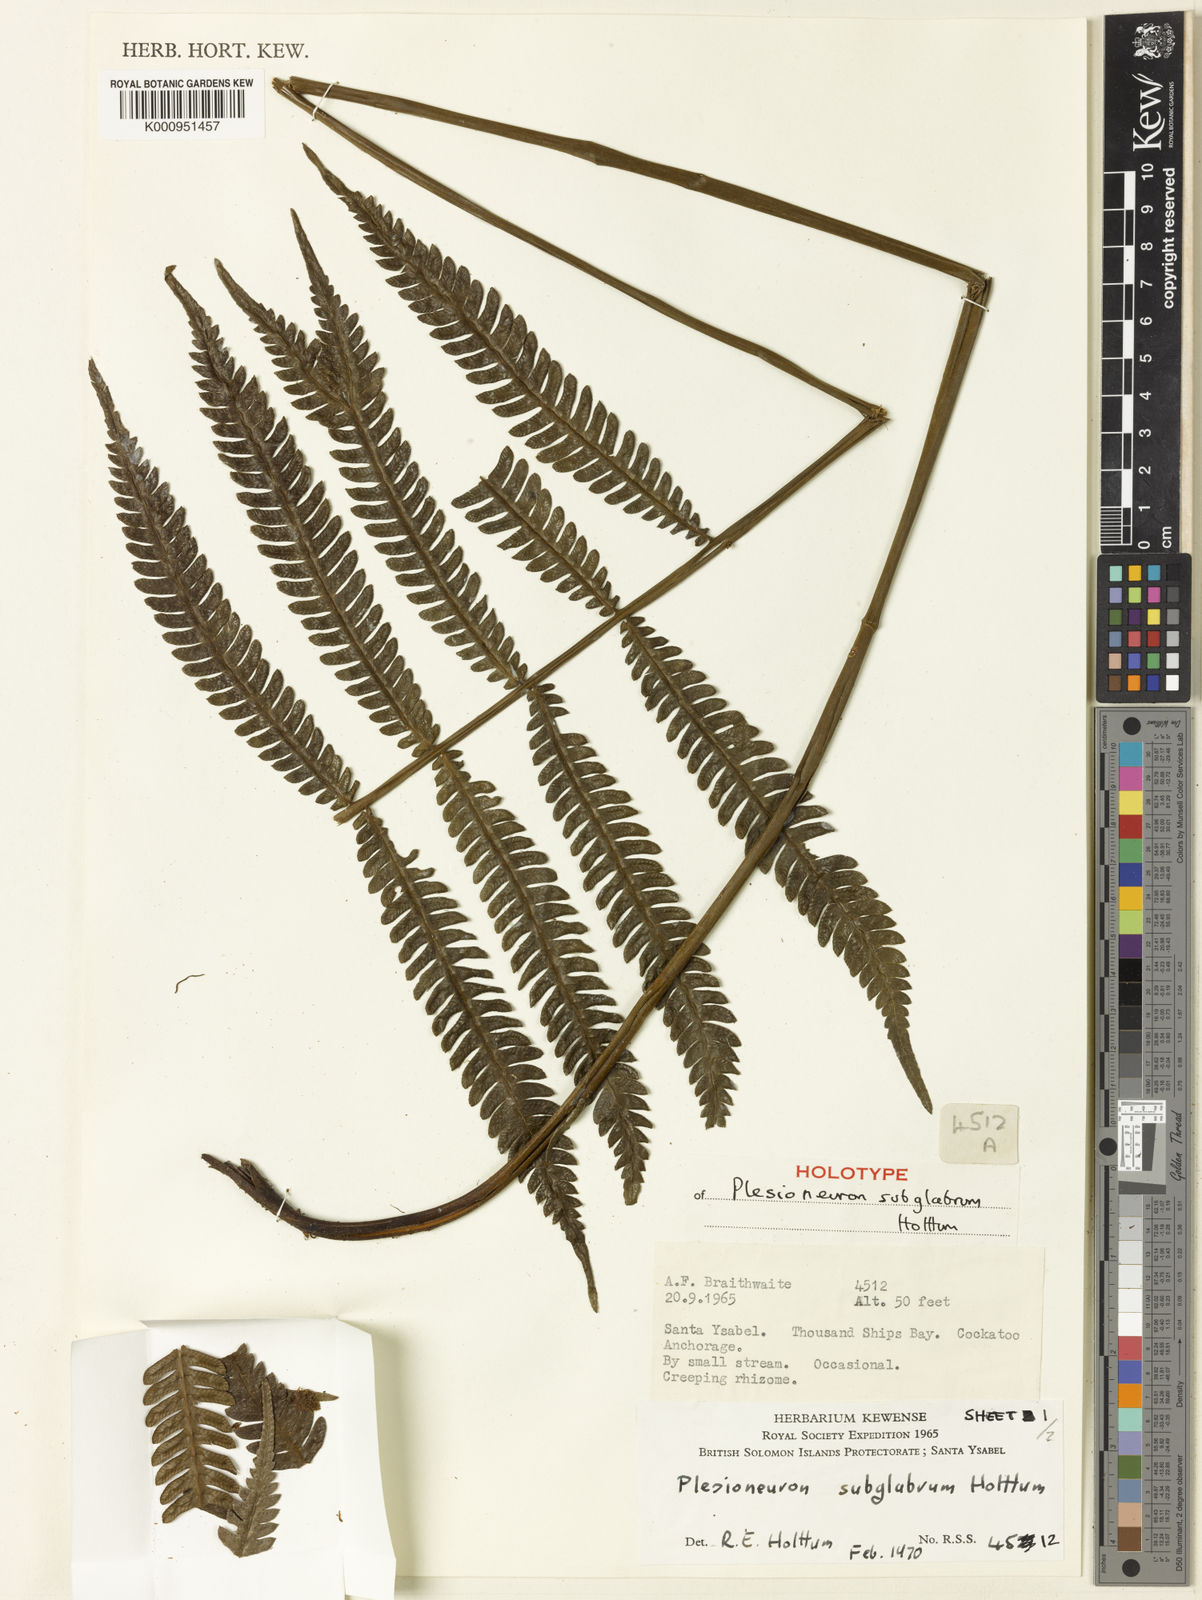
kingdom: Plantae
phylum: Tracheophyta
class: Polypodiopsida
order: Polypodiales
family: Thelypteridaceae
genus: Plesioneuron
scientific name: Plesioneuron subglabrum
